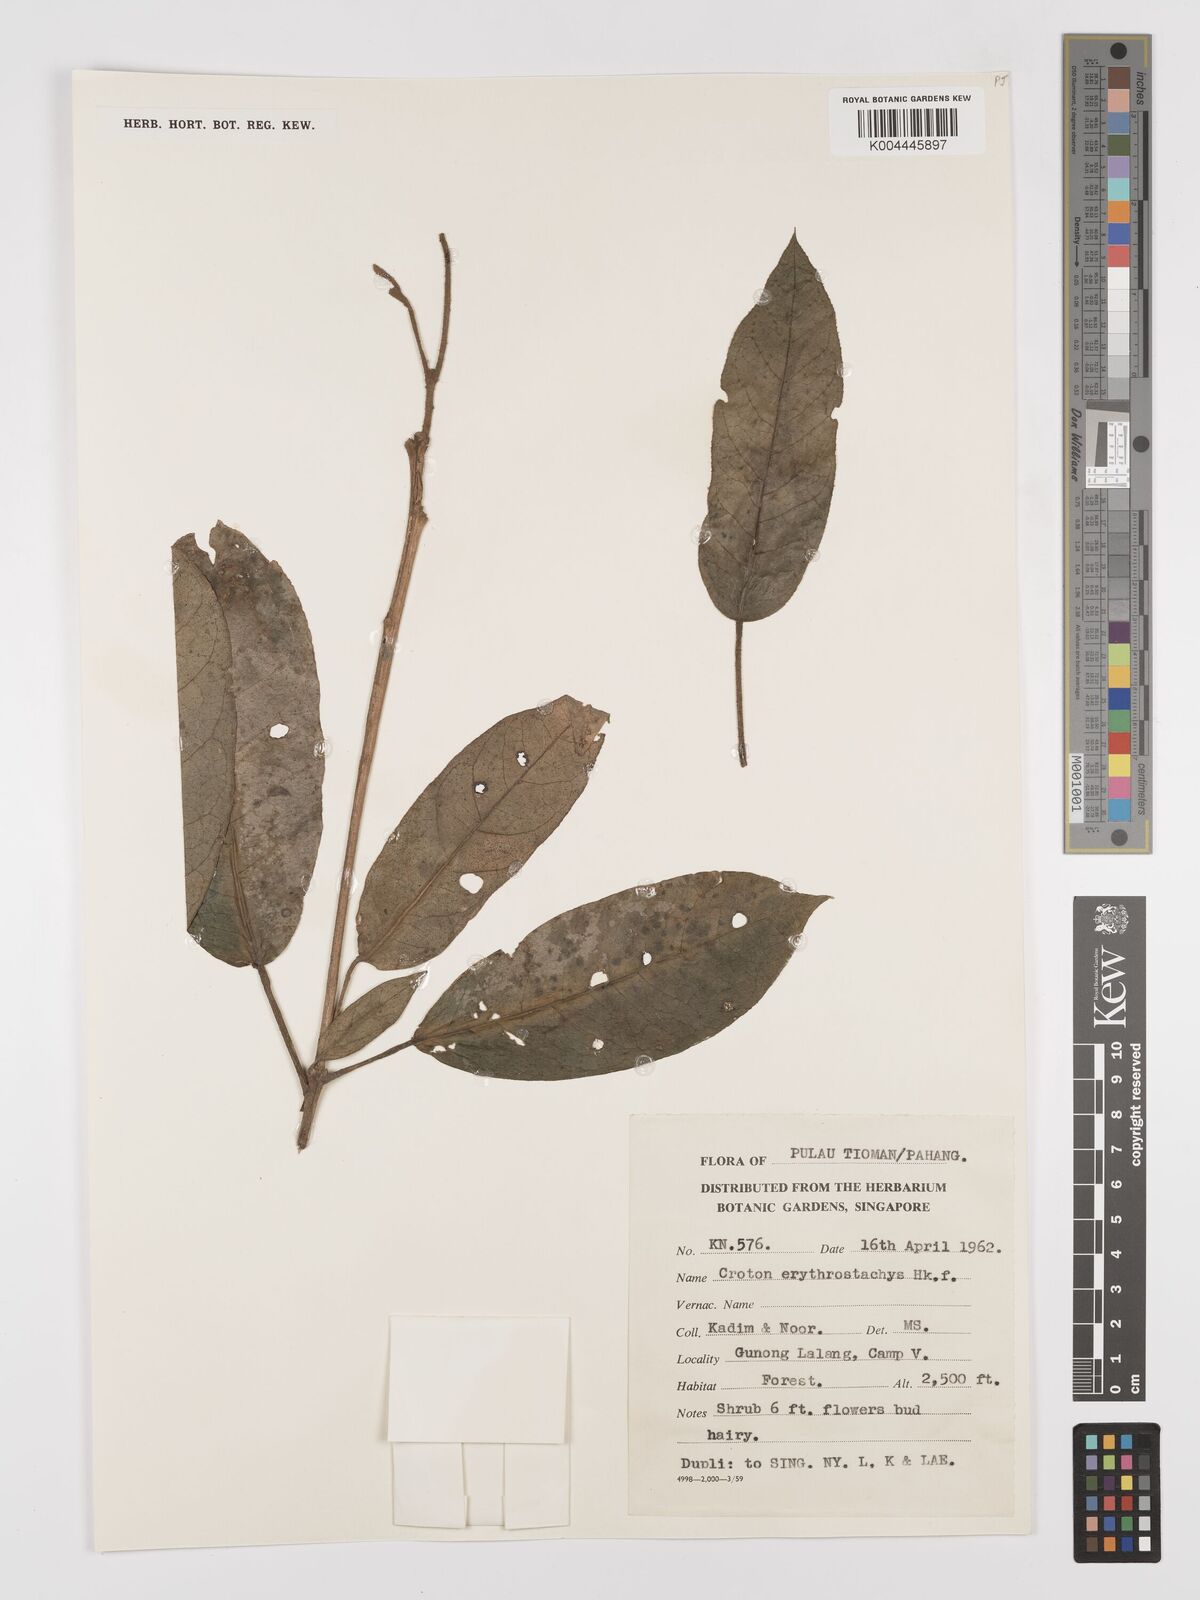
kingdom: Plantae
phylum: Tracheophyta
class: Magnoliopsida
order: Malpighiales
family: Euphorbiaceae
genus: Croton
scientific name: Croton erythrostachys
